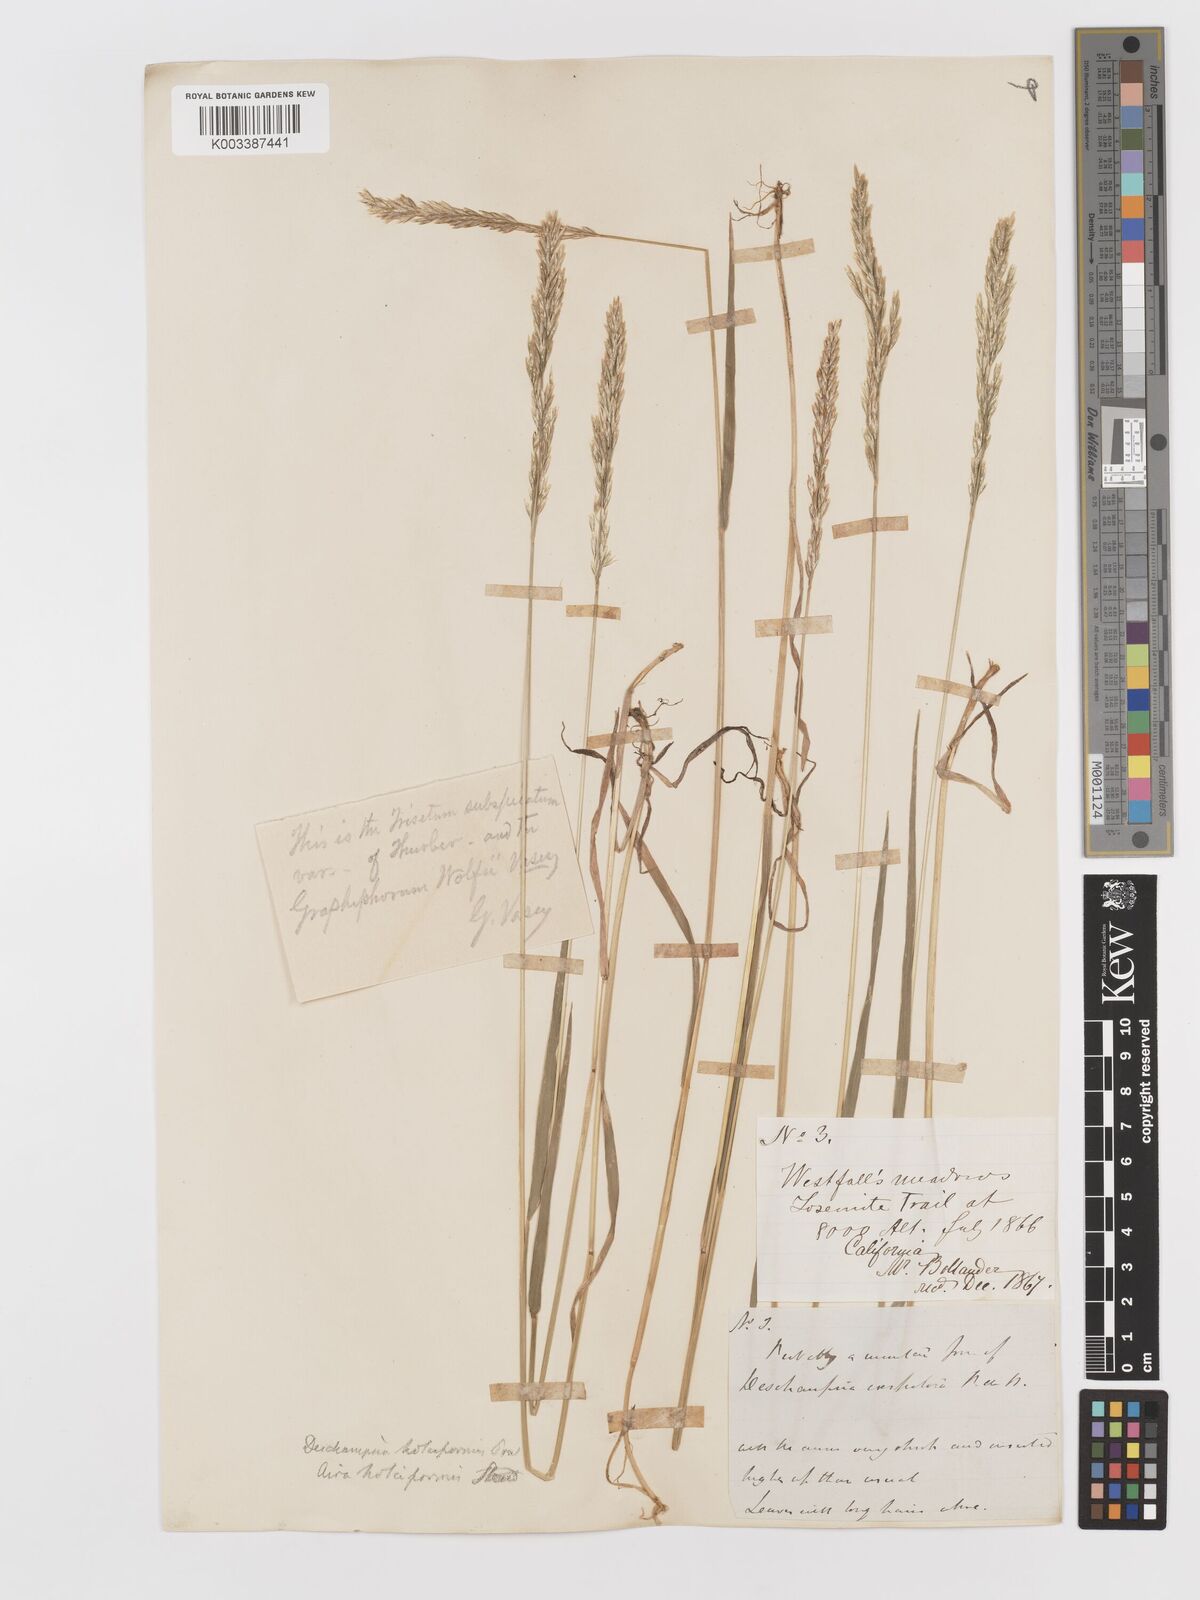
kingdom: Plantae
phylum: Tracheophyta
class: Liliopsida
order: Poales
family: Poaceae
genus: Deschampsia
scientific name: Deschampsia cespitosa
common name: Tufted hair-grass
